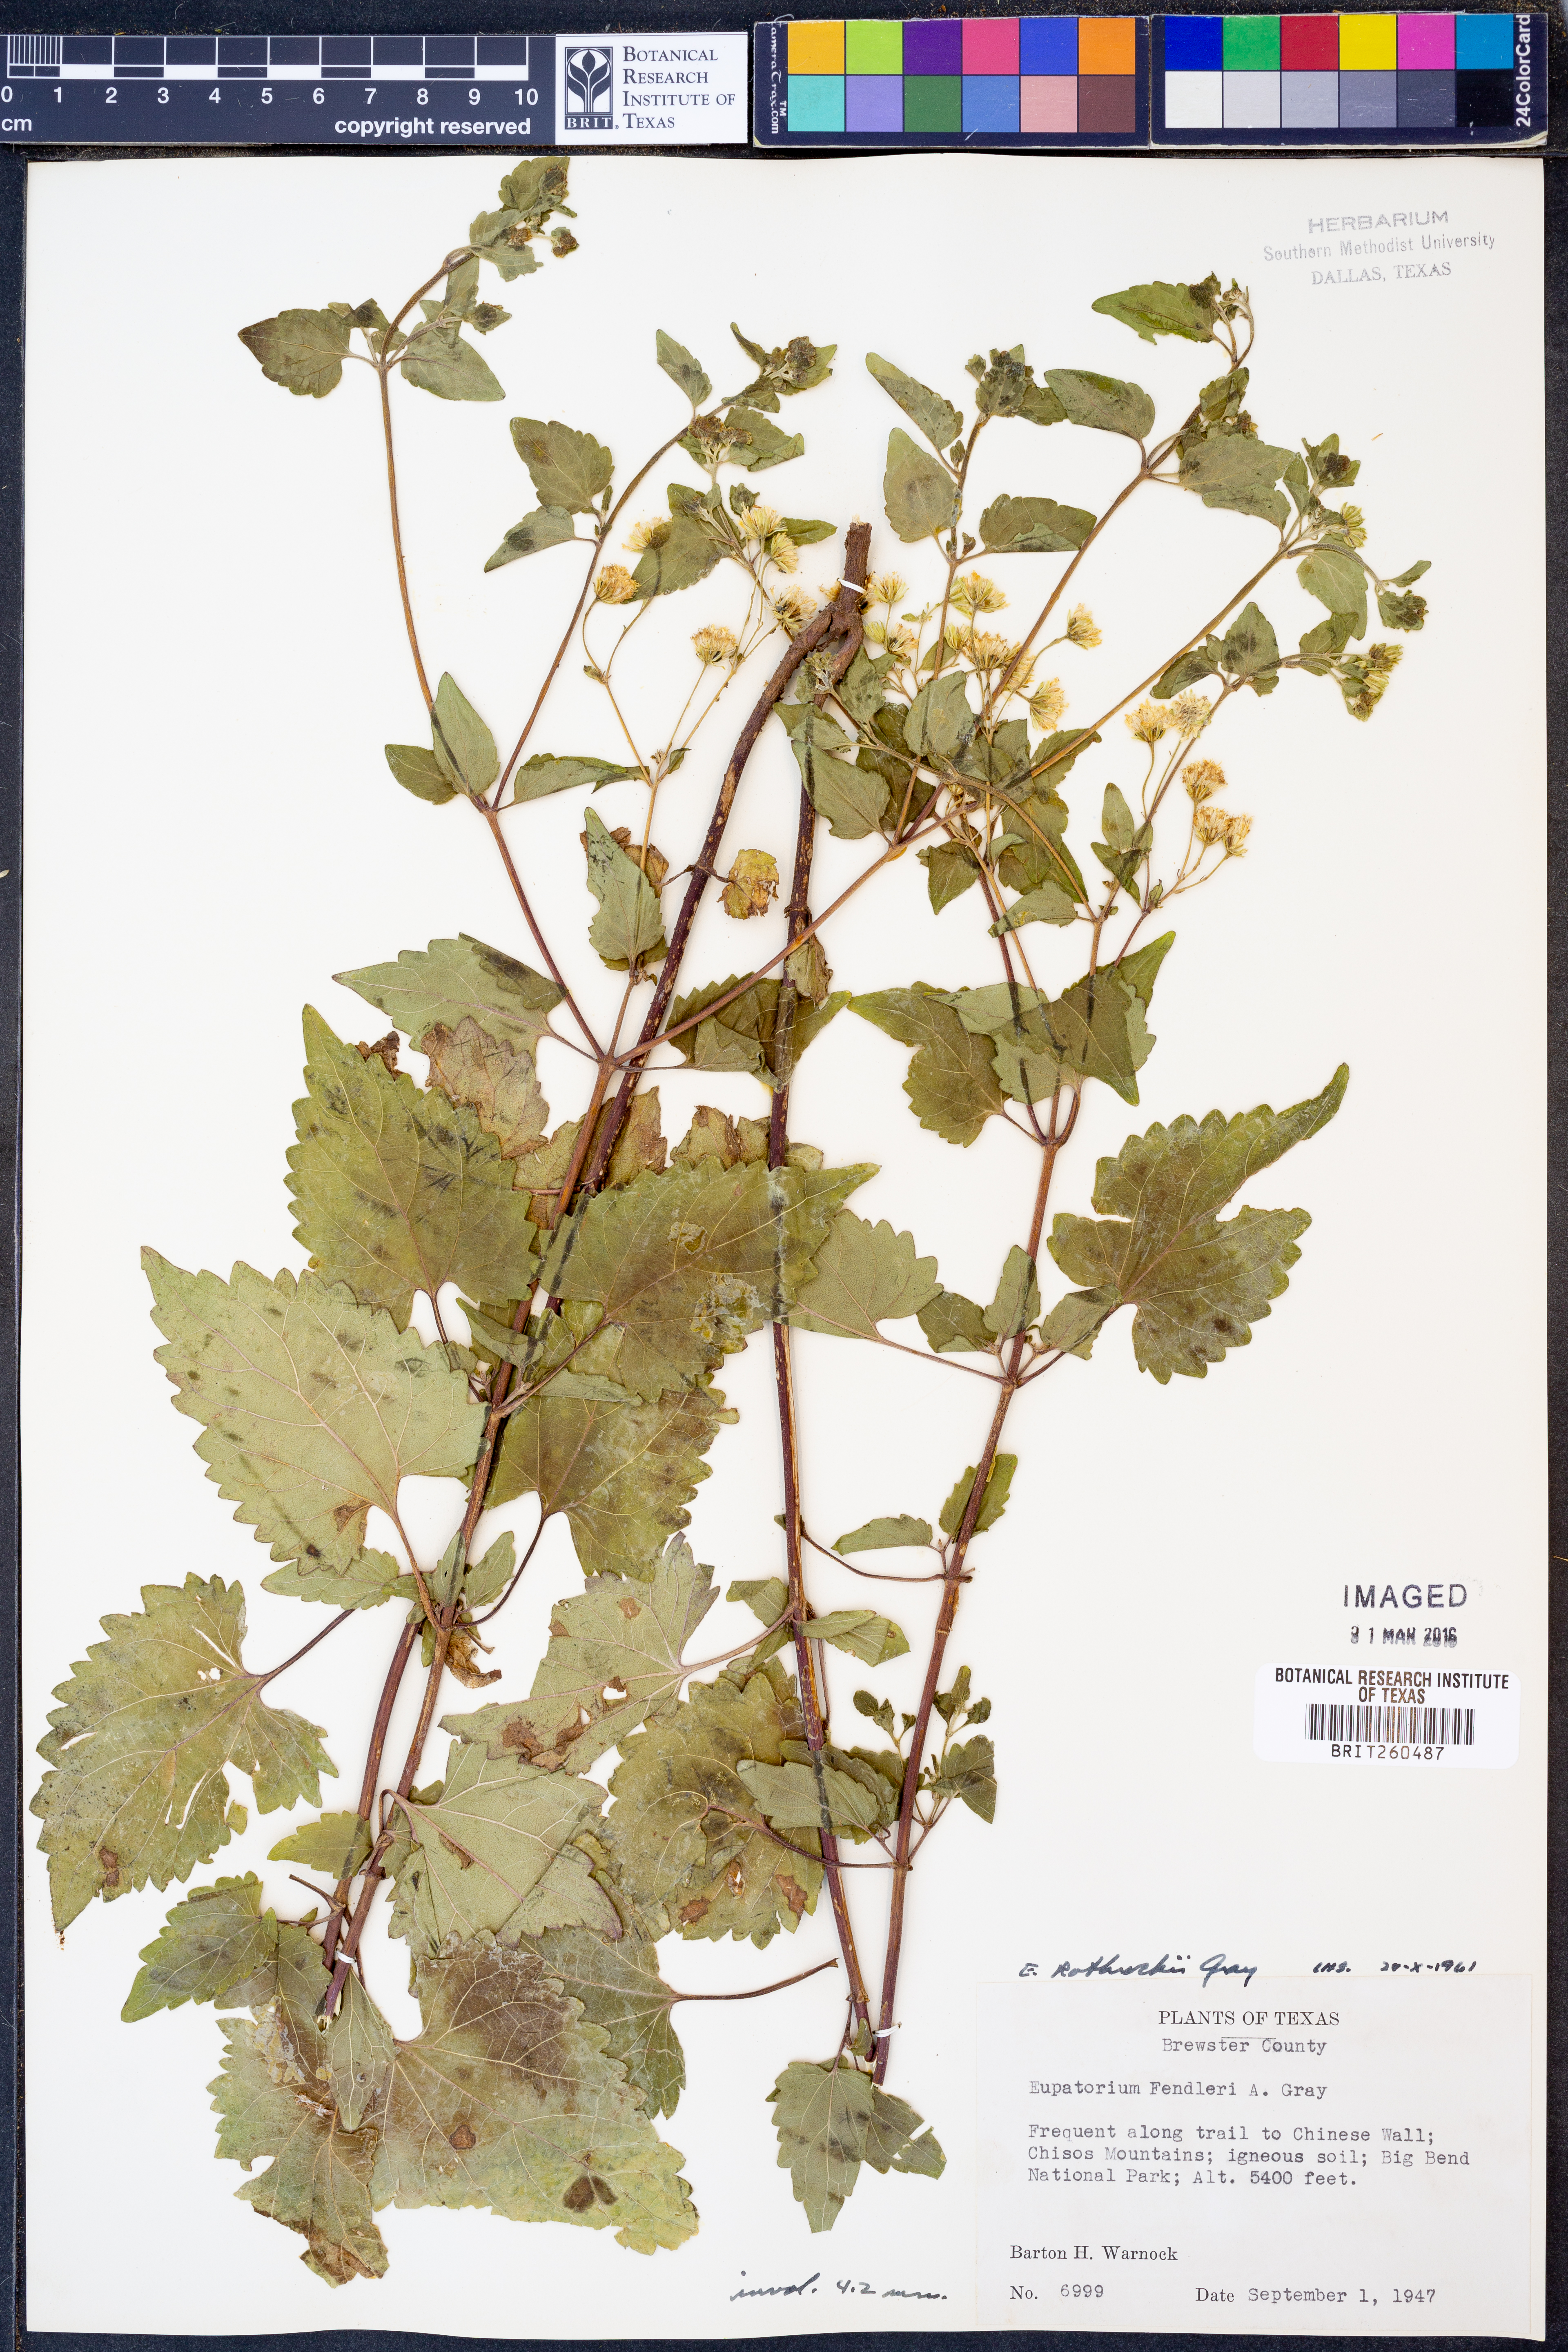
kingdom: Plantae
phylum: Tracheophyta
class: Magnoliopsida
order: Asterales
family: Asteraceae
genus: Ageratina
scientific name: Ageratina rothrockii
